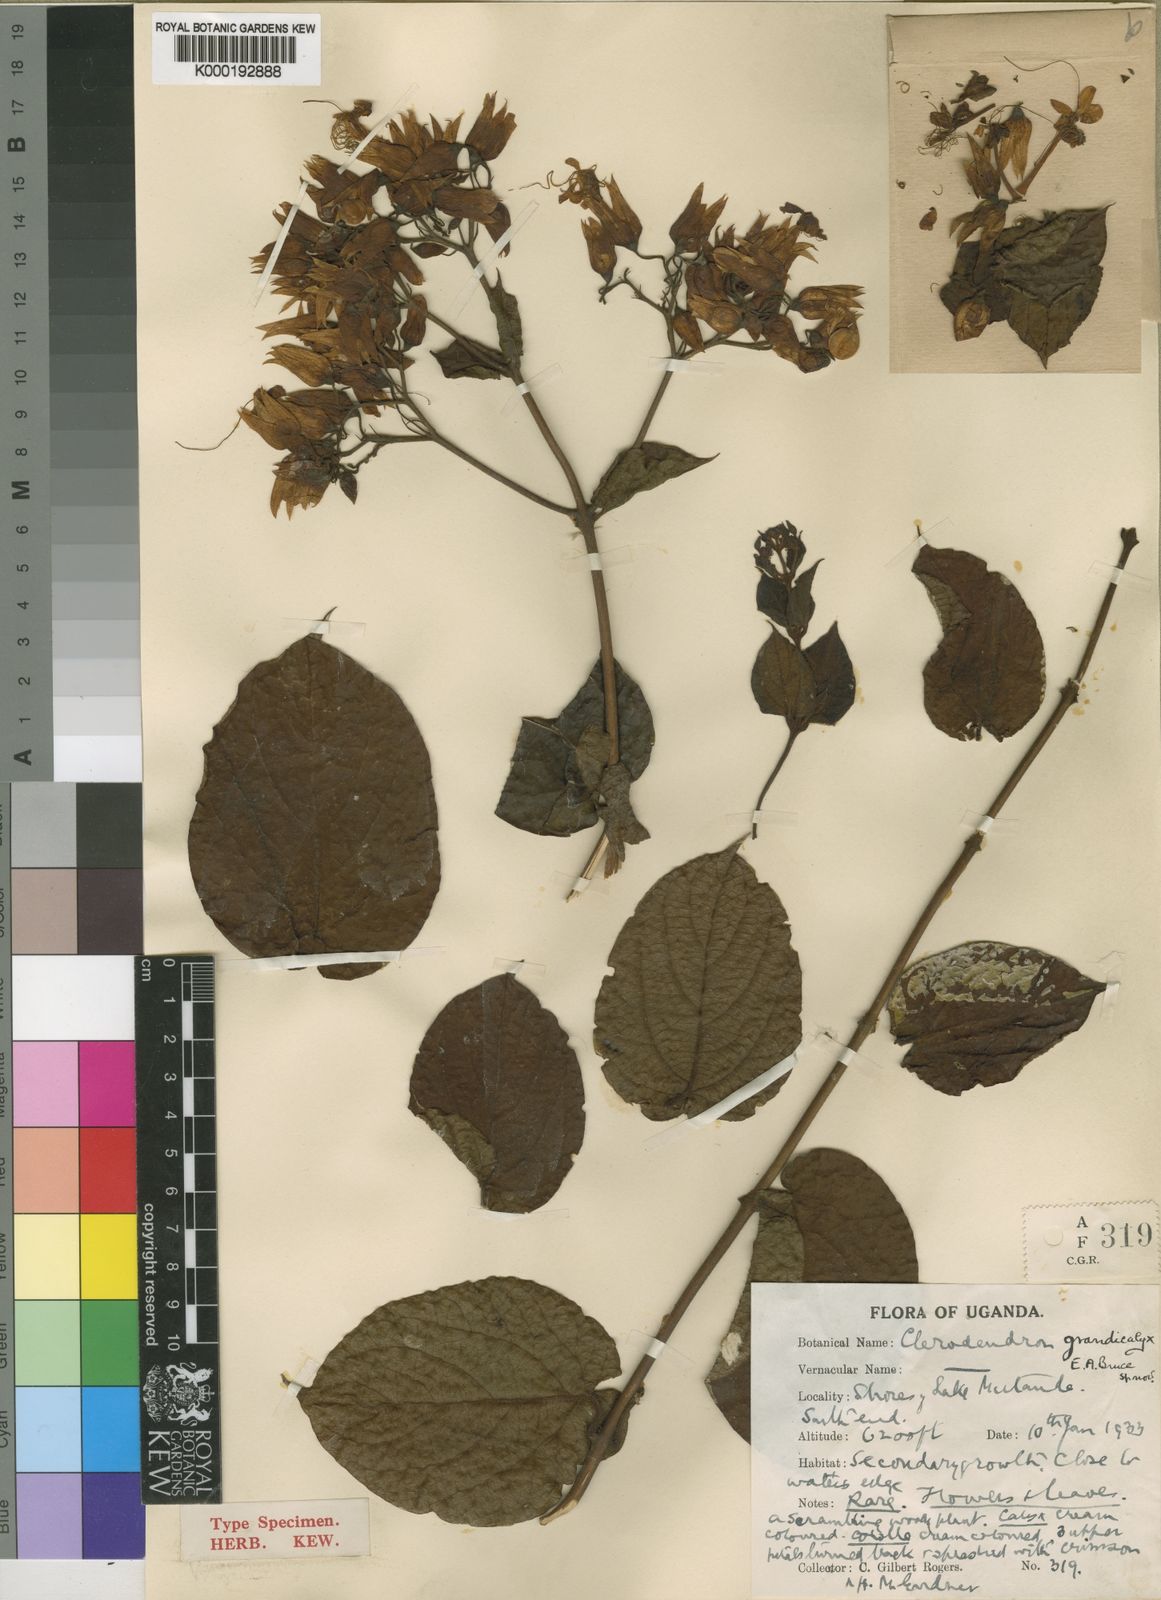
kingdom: Plantae
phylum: Tracheophyta
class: Magnoliopsida
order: Lamiales
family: Lamiaceae
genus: Clerodendrum
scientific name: Clerodendrum fuscum
